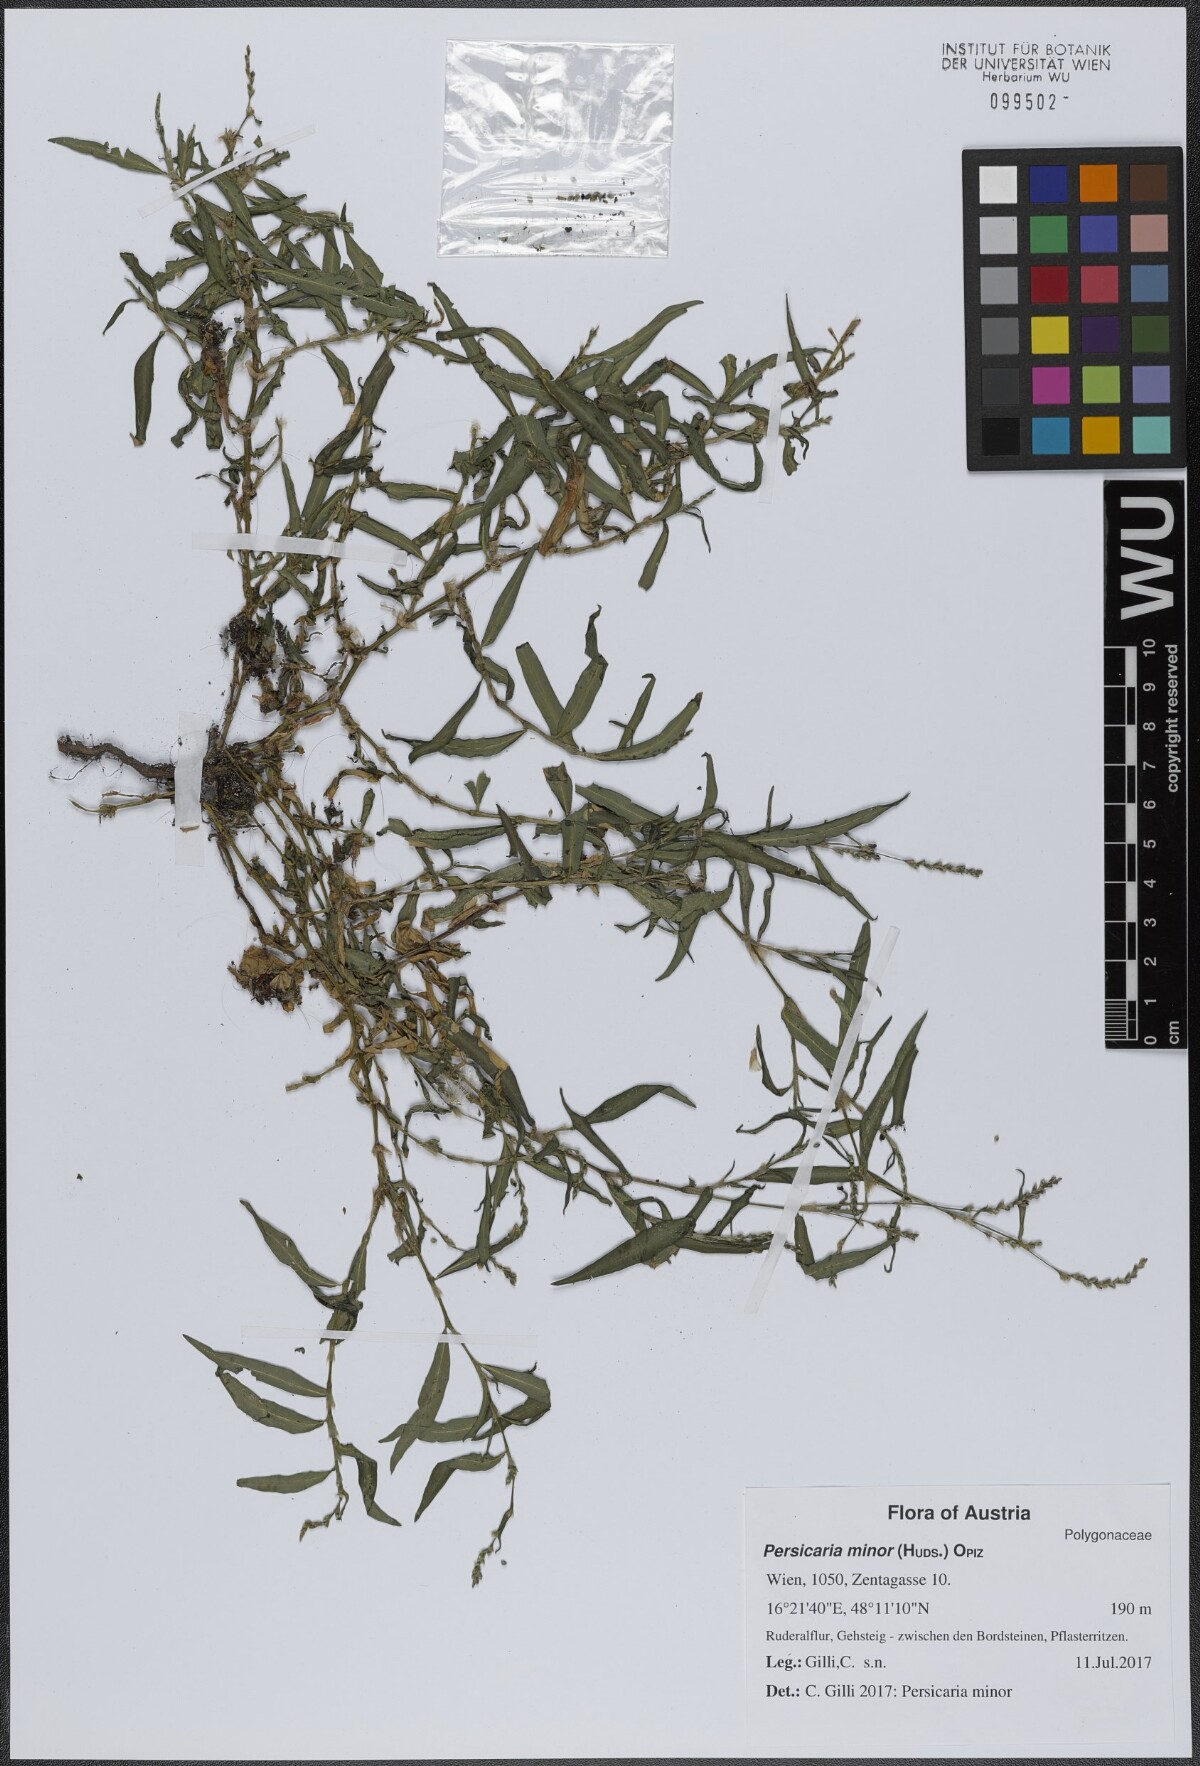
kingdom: Plantae
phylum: Tracheophyta
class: Magnoliopsida
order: Caryophyllales
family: Polygonaceae
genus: Persicaria
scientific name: Persicaria minor
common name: Small water-pepper
